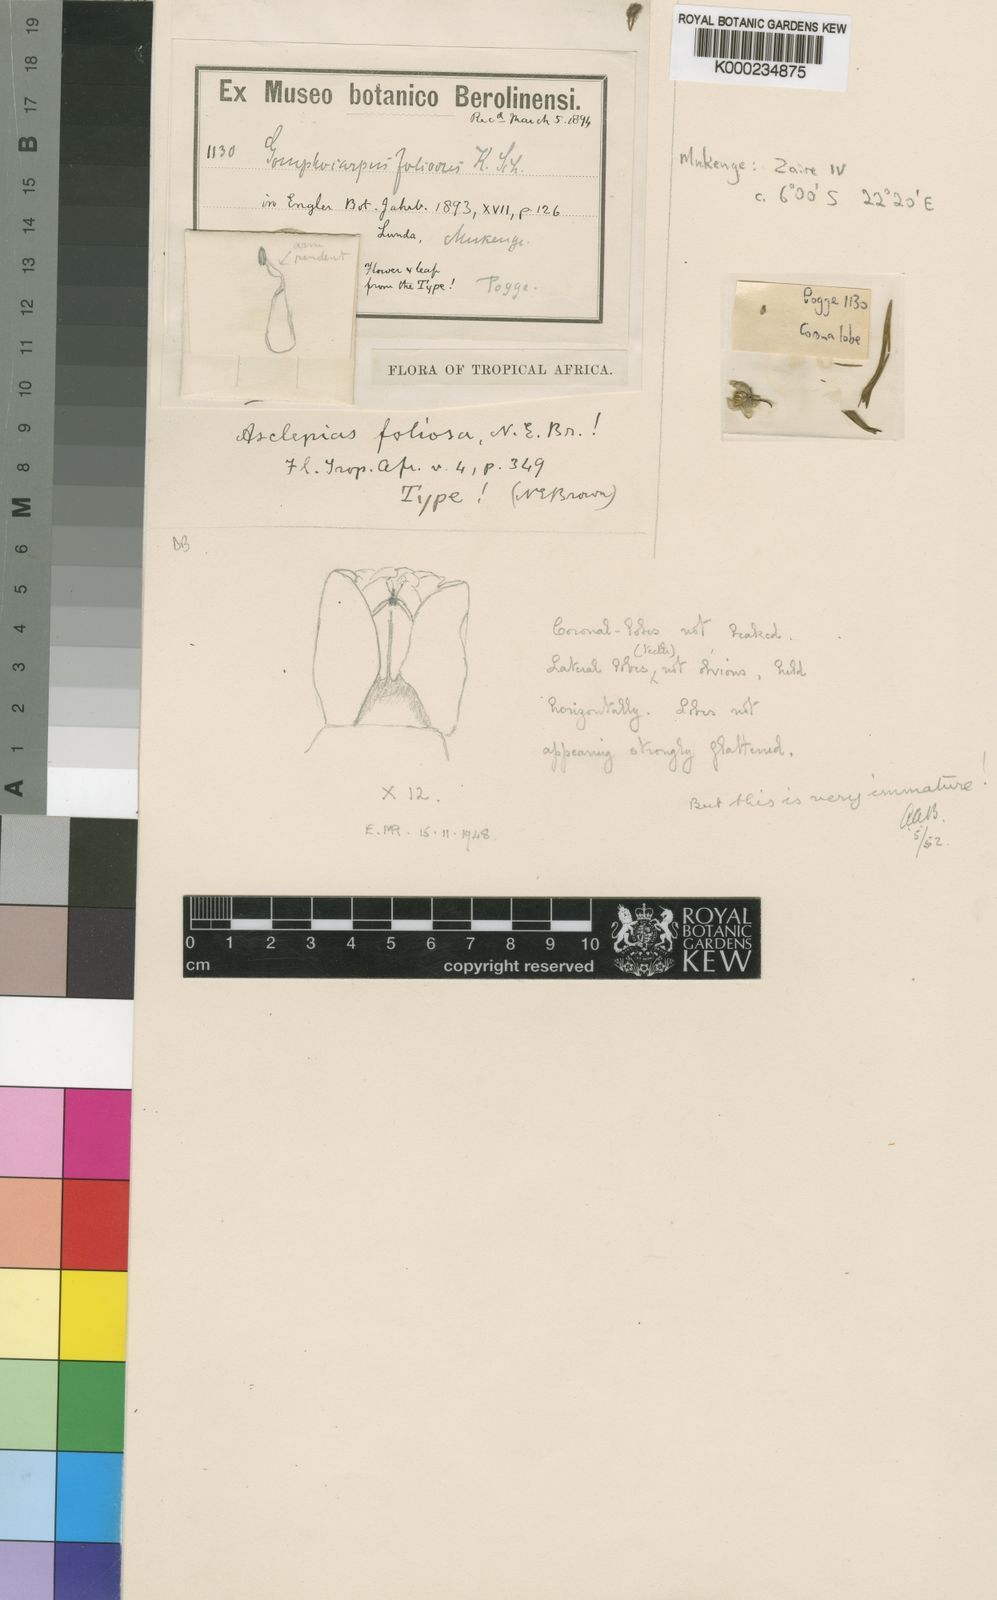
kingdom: Plantae
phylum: Tracheophyta
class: Magnoliopsida
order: Gentianales
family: Apocynaceae
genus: Asclepias
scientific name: Asclepias foliosa
